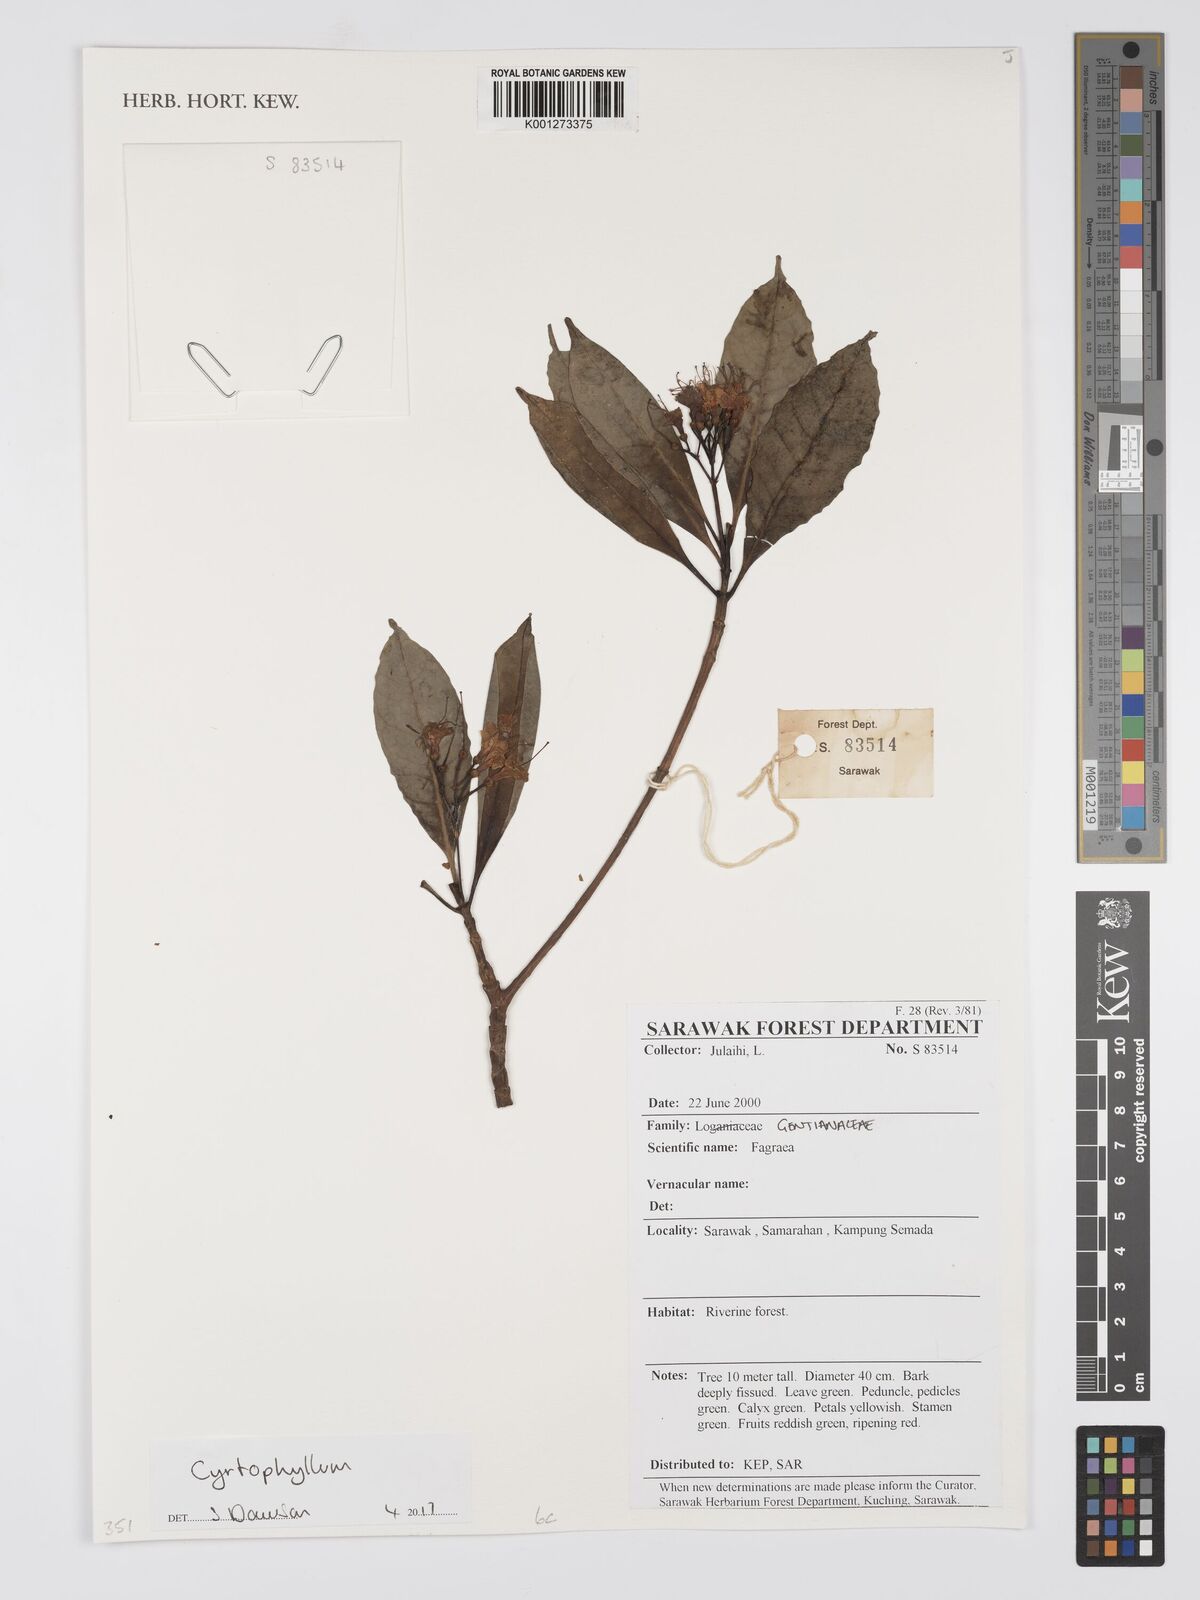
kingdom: Plantae
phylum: Tracheophyta
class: Magnoliopsida
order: Gentianales
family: Gentianaceae
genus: Cyrtophyllum
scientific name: Cyrtophyllum
